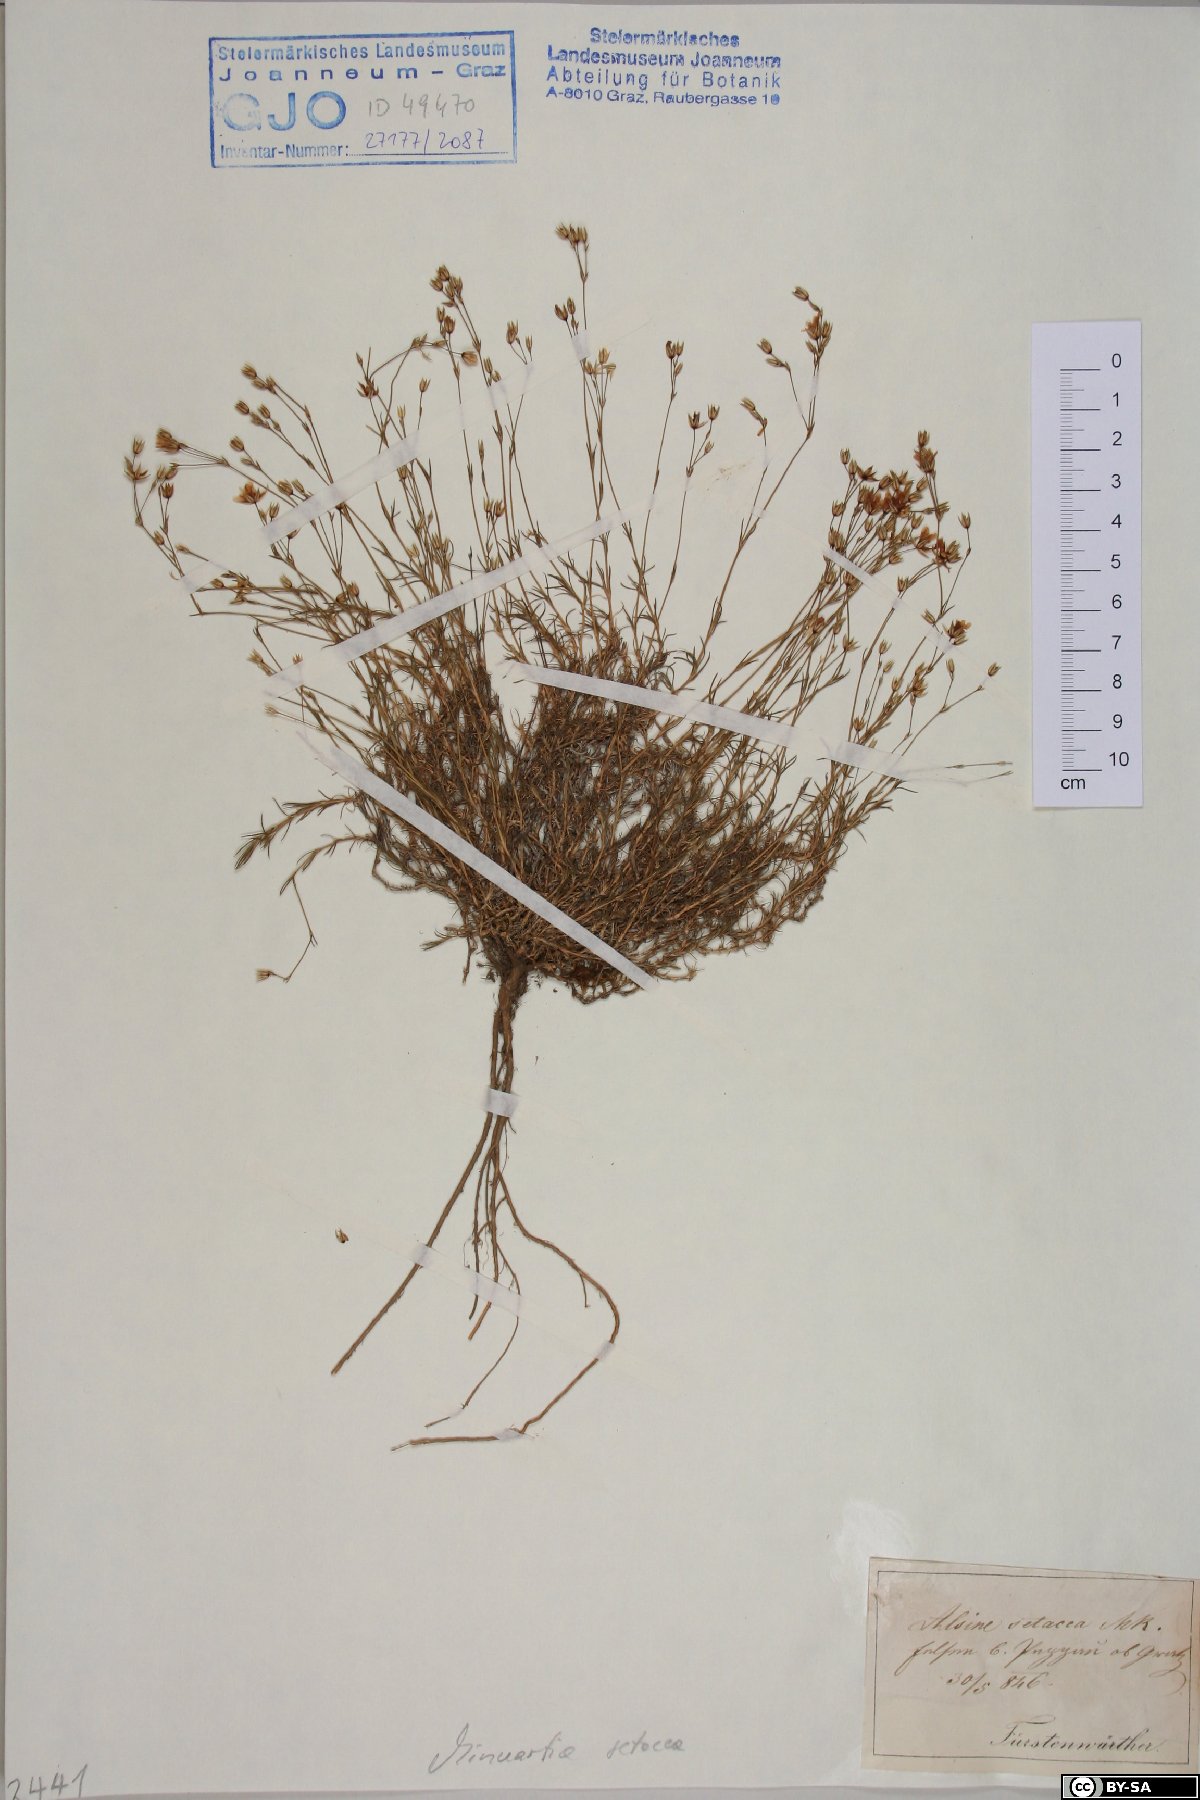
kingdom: Plantae
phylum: Tracheophyta
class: Magnoliopsida
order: Caryophyllales
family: Caryophyllaceae
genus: Minuartia
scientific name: Minuartia setacea
